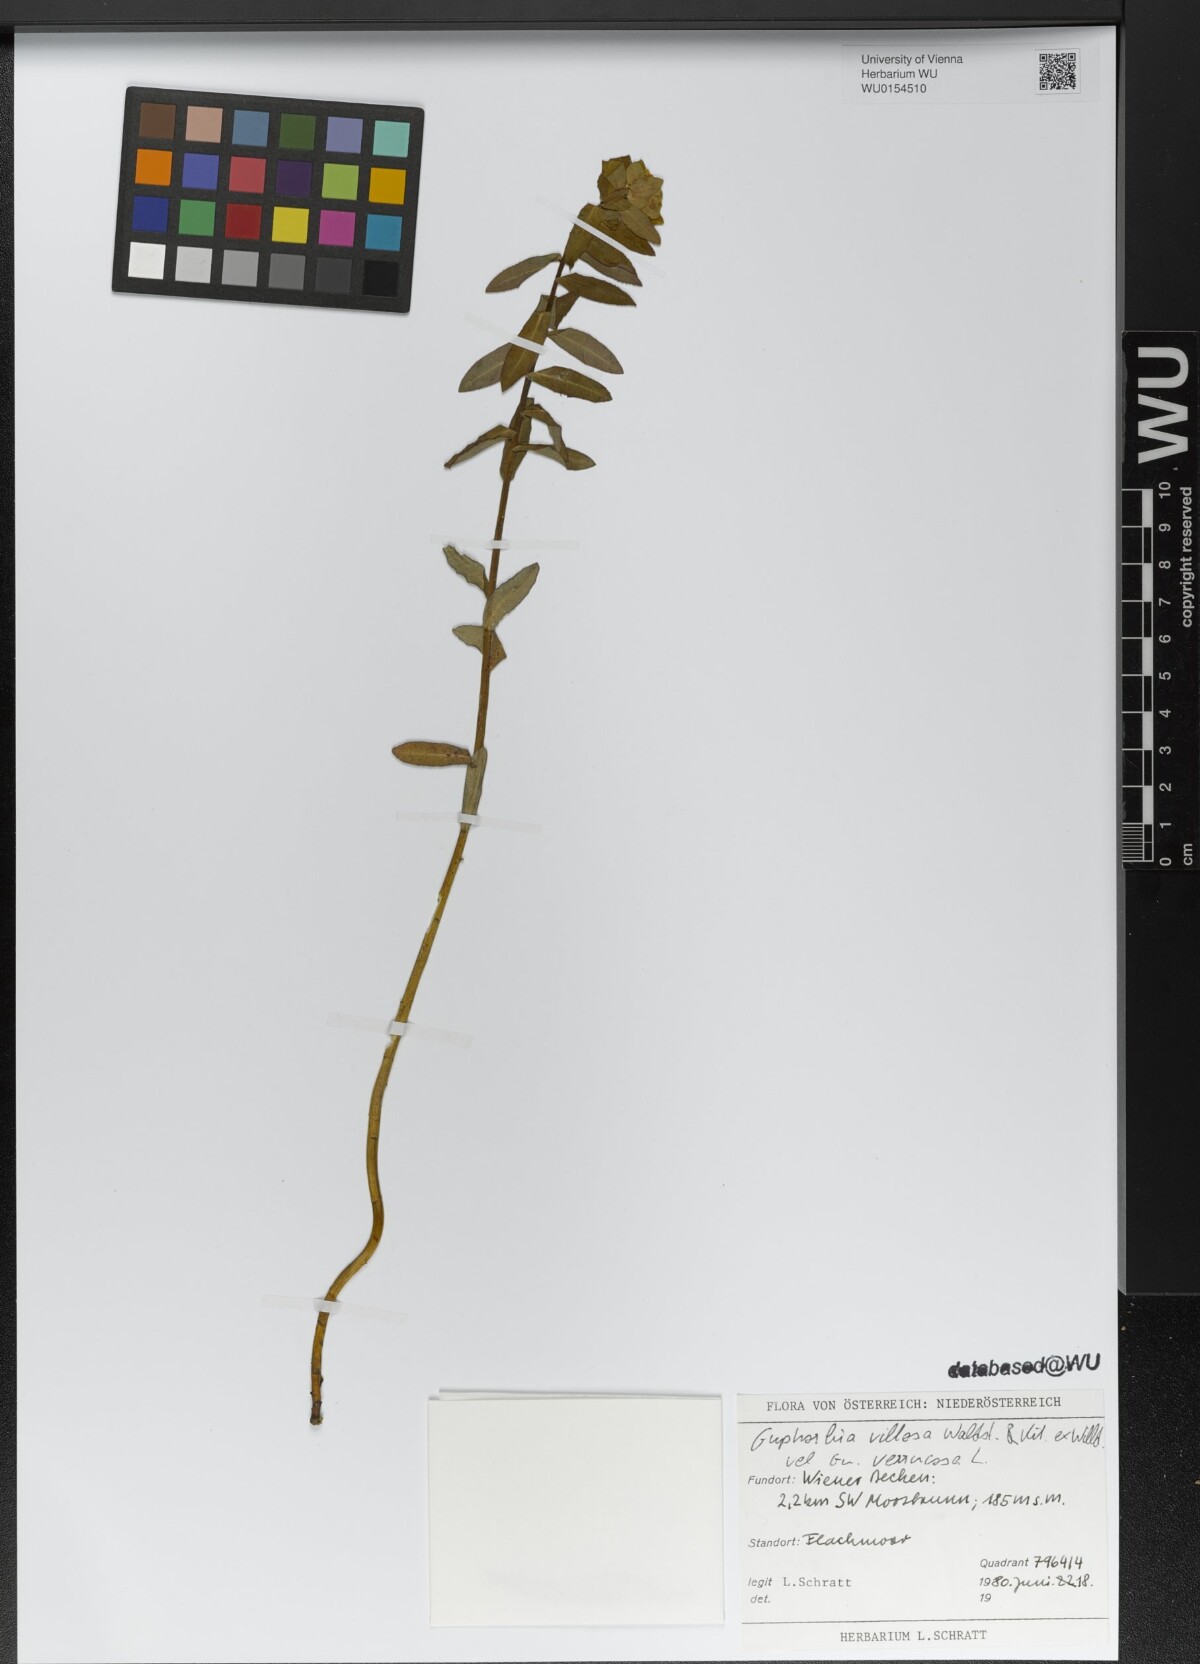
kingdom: Plantae
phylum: Tracheophyta
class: Magnoliopsida
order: Malpighiales
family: Euphorbiaceae
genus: Euphorbia
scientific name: Euphorbia illirica
